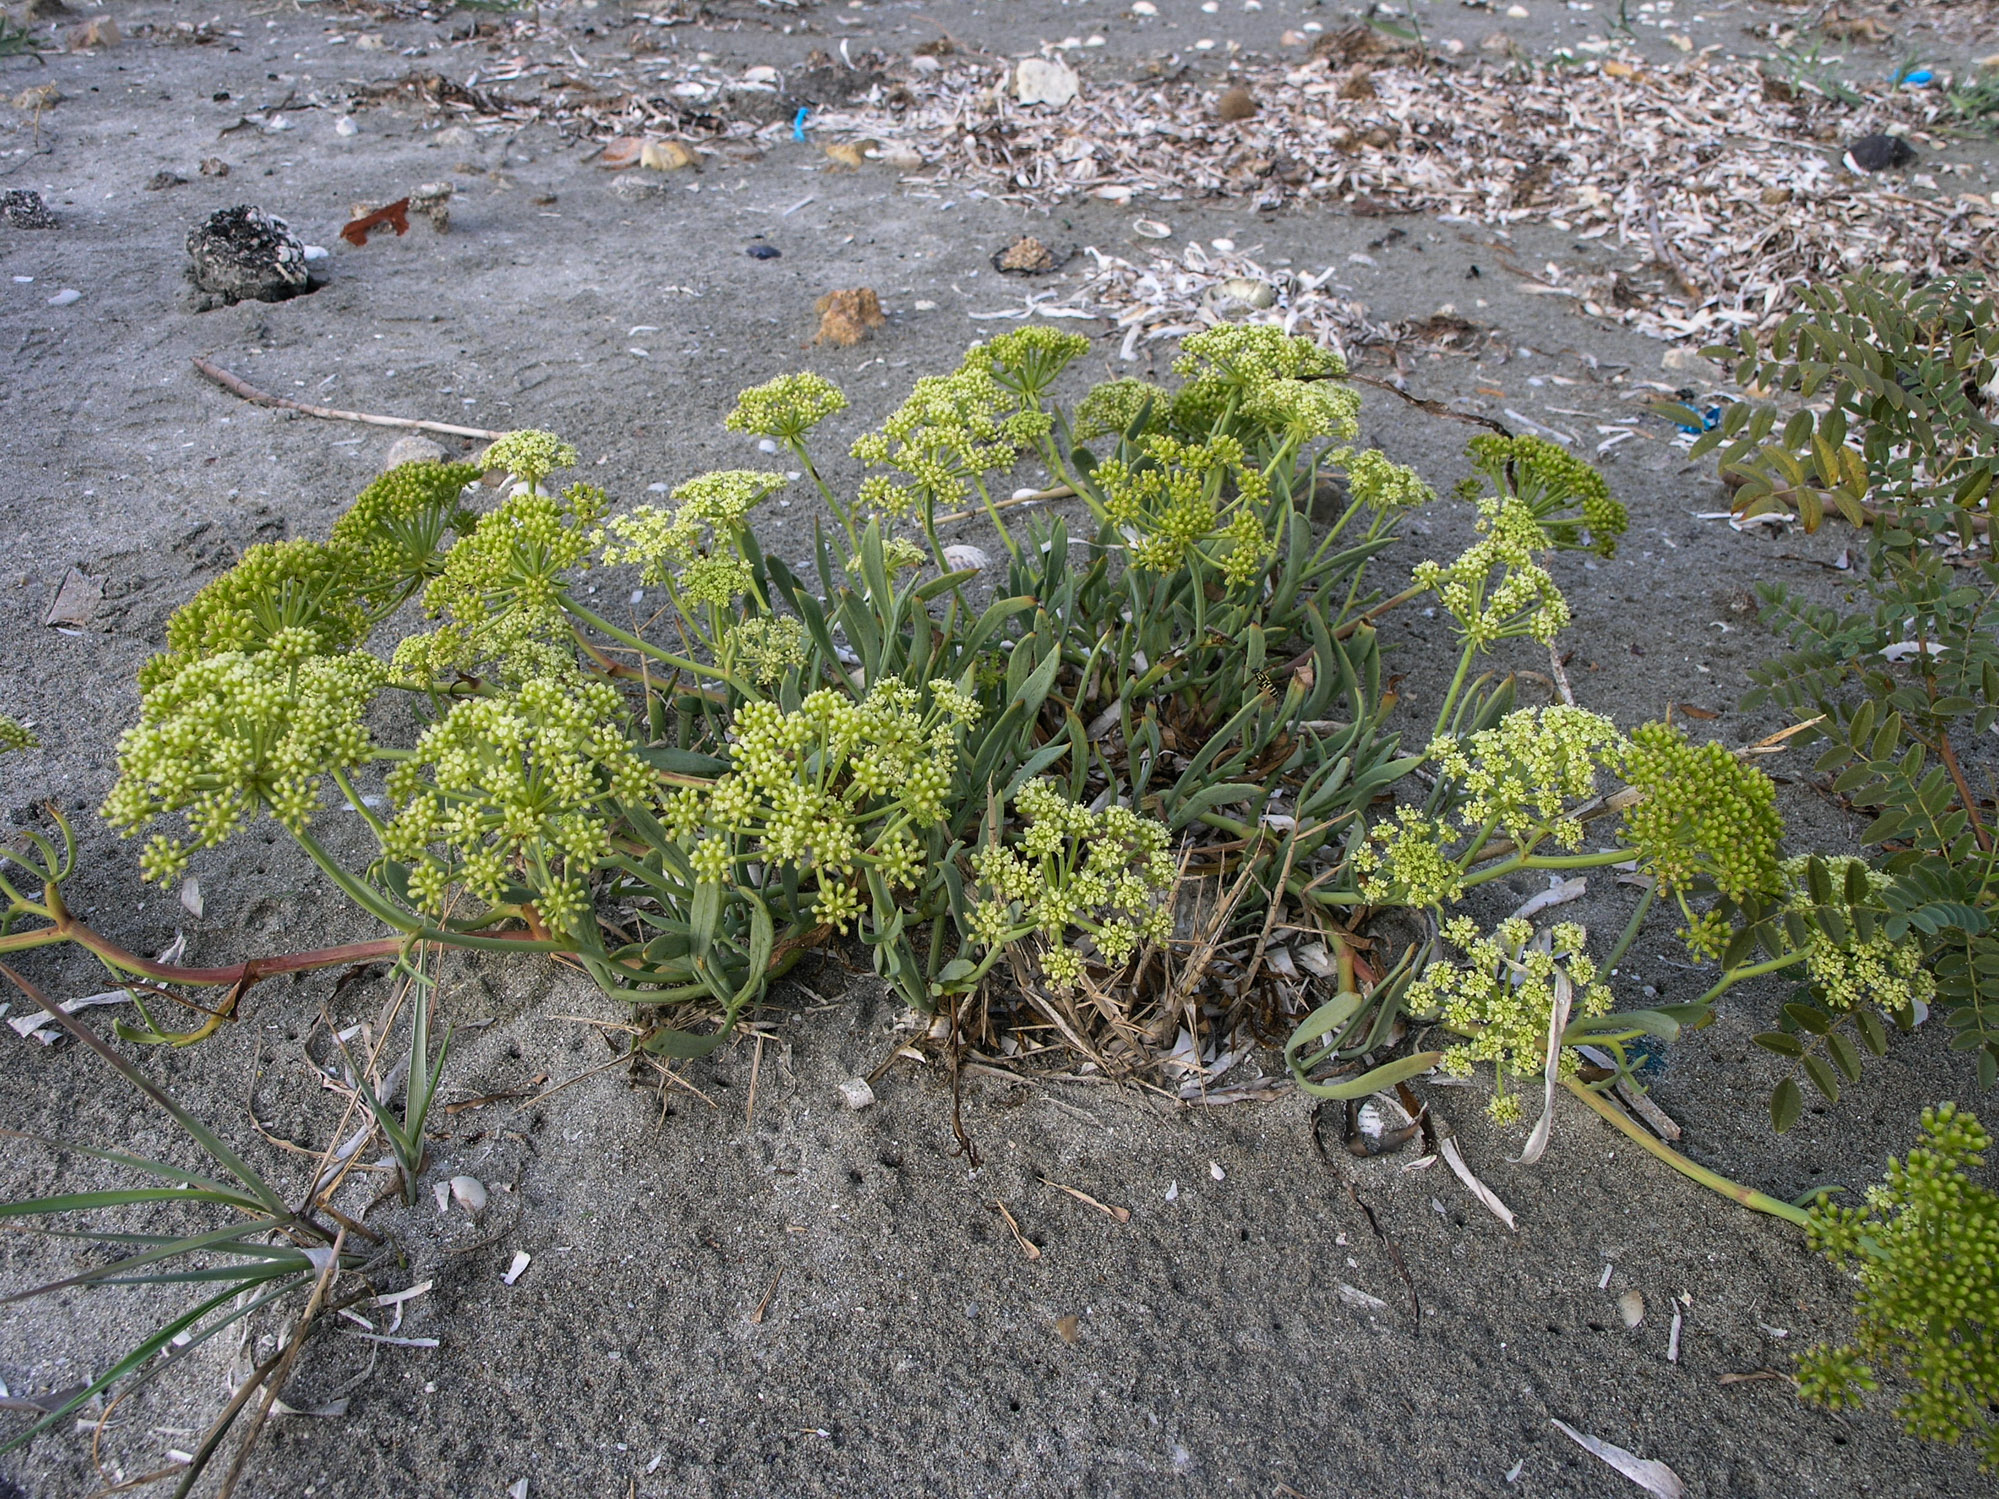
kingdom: Plantae
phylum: Tracheophyta
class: Magnoliopsida
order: Apiales
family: Apiaceae
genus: Crithmum
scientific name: Crithmum maritimum
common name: Rock samphire
